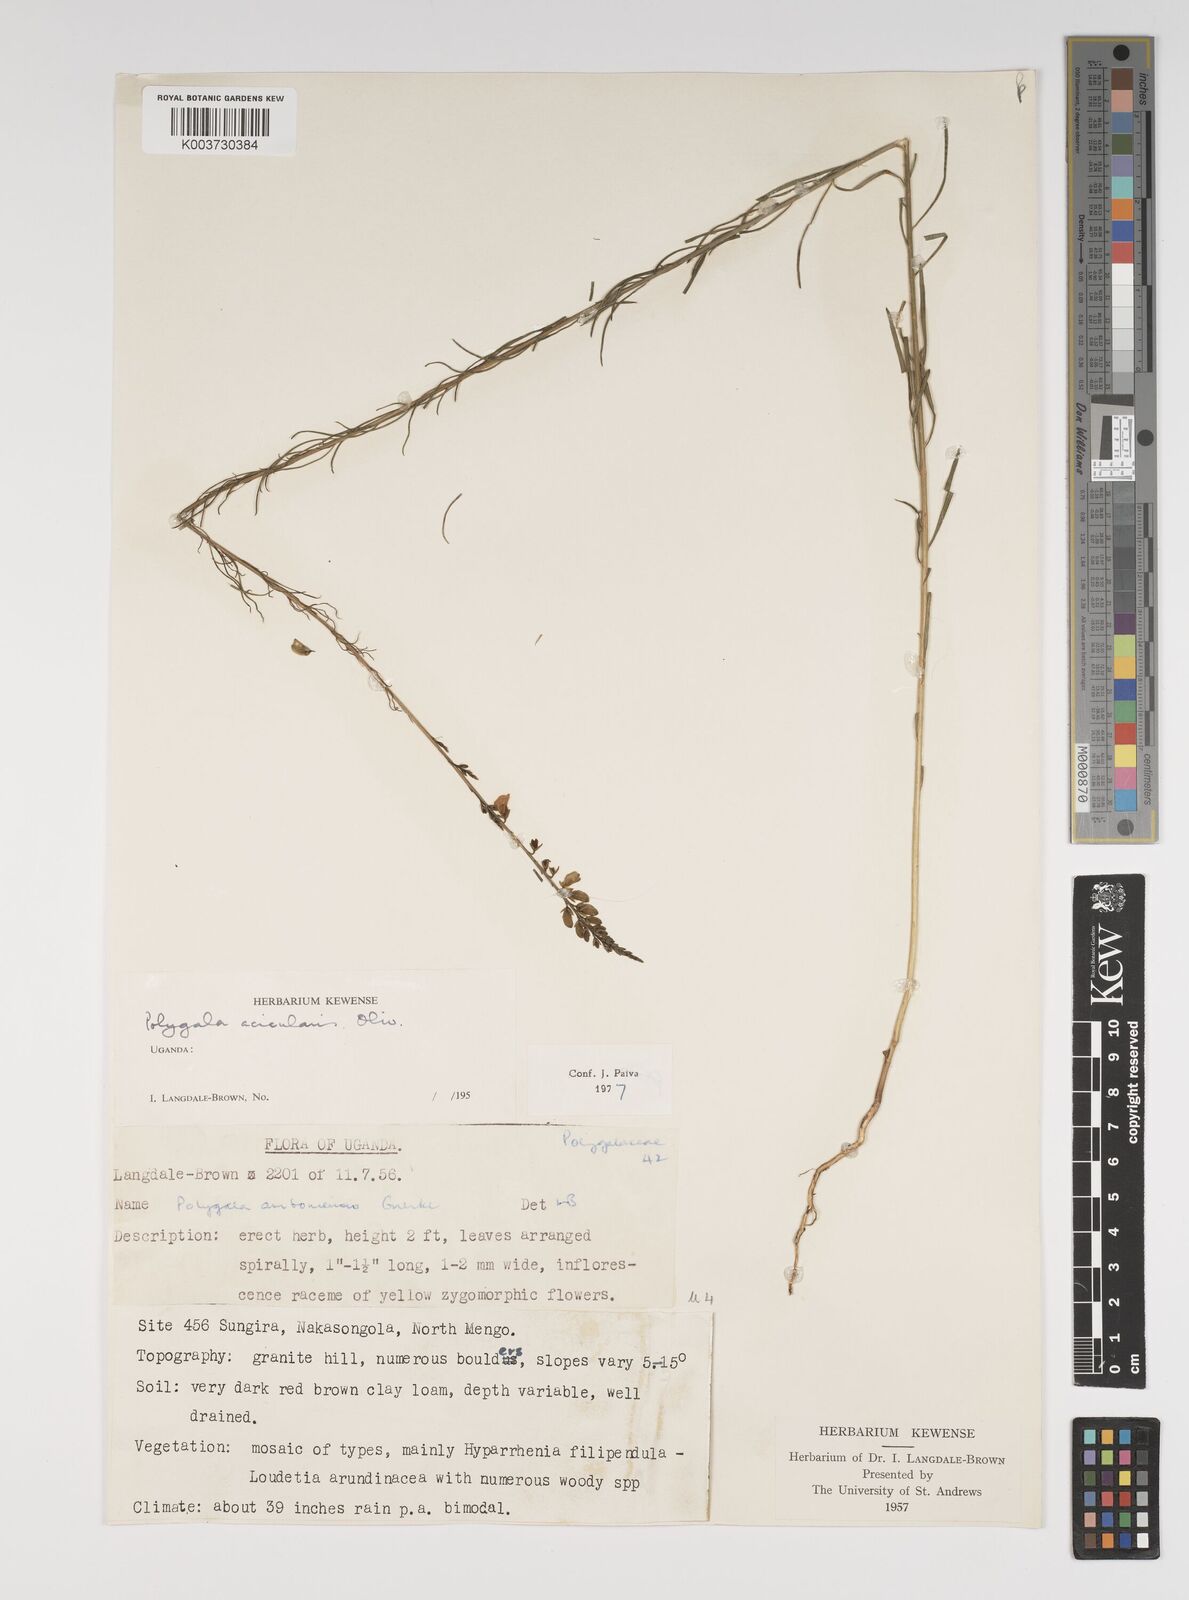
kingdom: Plantae
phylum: Tracheophyta
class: Magnoliopsida
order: Fabales
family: Polygalaceae
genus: Polygala
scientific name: Polygala acicularis
